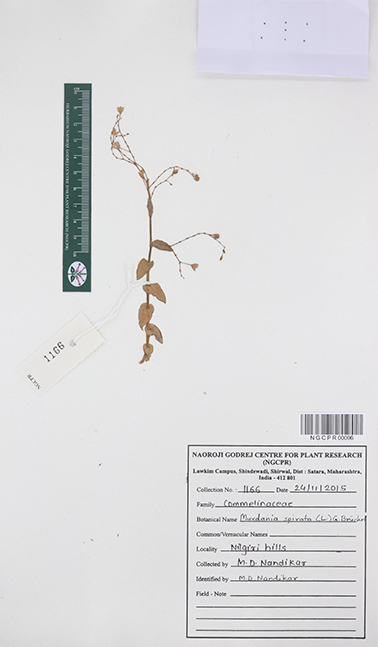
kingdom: Plantae
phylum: Tracheophyta
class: Liliopsida
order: Commelinales
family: Commelinaceae
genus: Murdannia
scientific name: Murdannia spirata
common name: Asiatic dewflower
